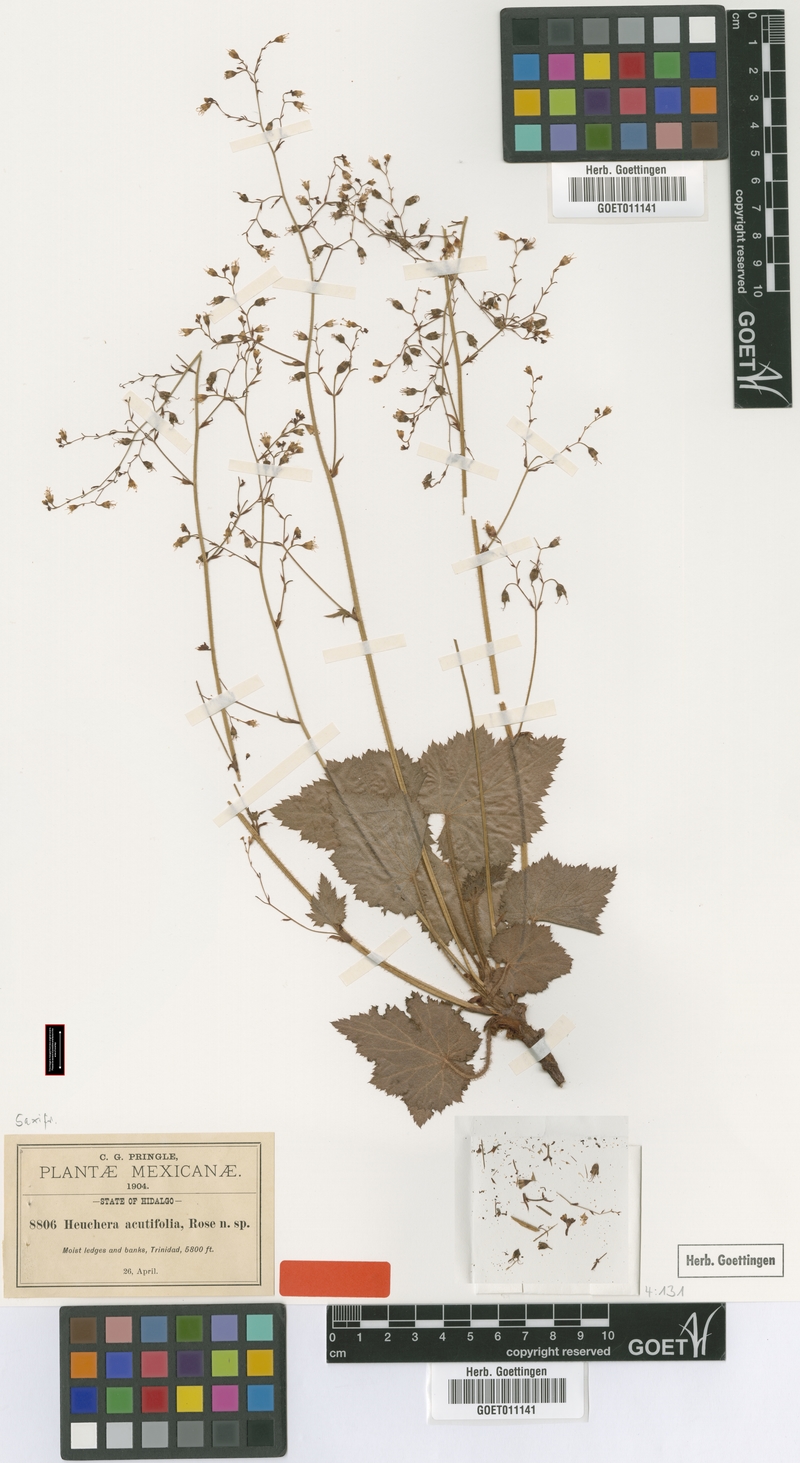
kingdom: Plantae
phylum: Tracheophyta
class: Magnoliopsida
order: Saxifragales
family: Saxifragaceae
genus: Heuchera
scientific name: Heuchera acutifolia
